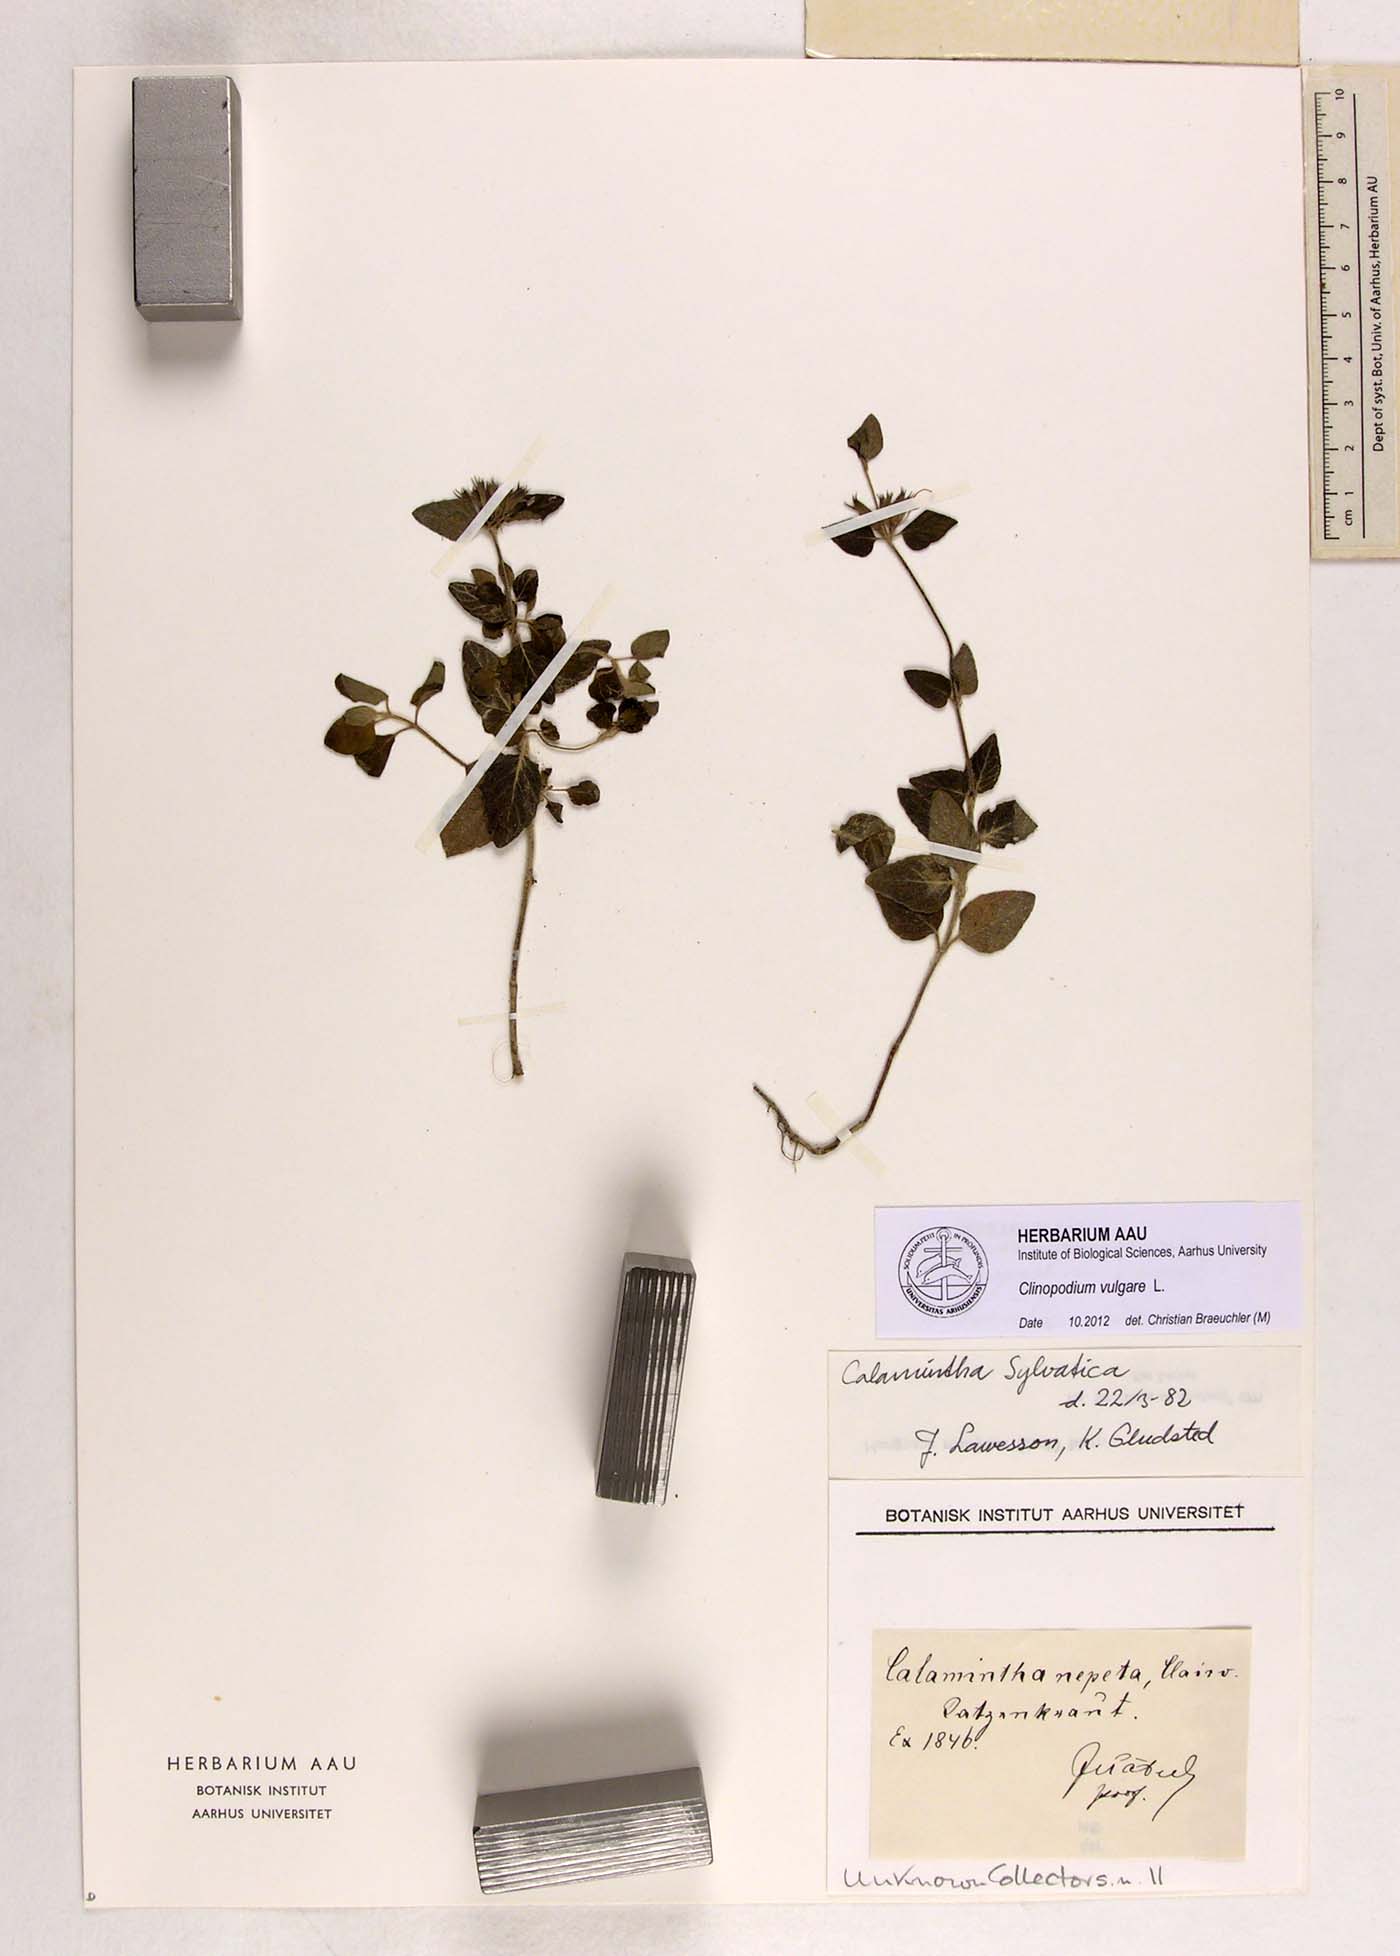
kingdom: Plantae
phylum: Tracheophyta
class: Magnoliopsida
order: Lamiales
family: Lamiaceae
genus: Clinopodium
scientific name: Clinopodium vulgare
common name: Wild basil
